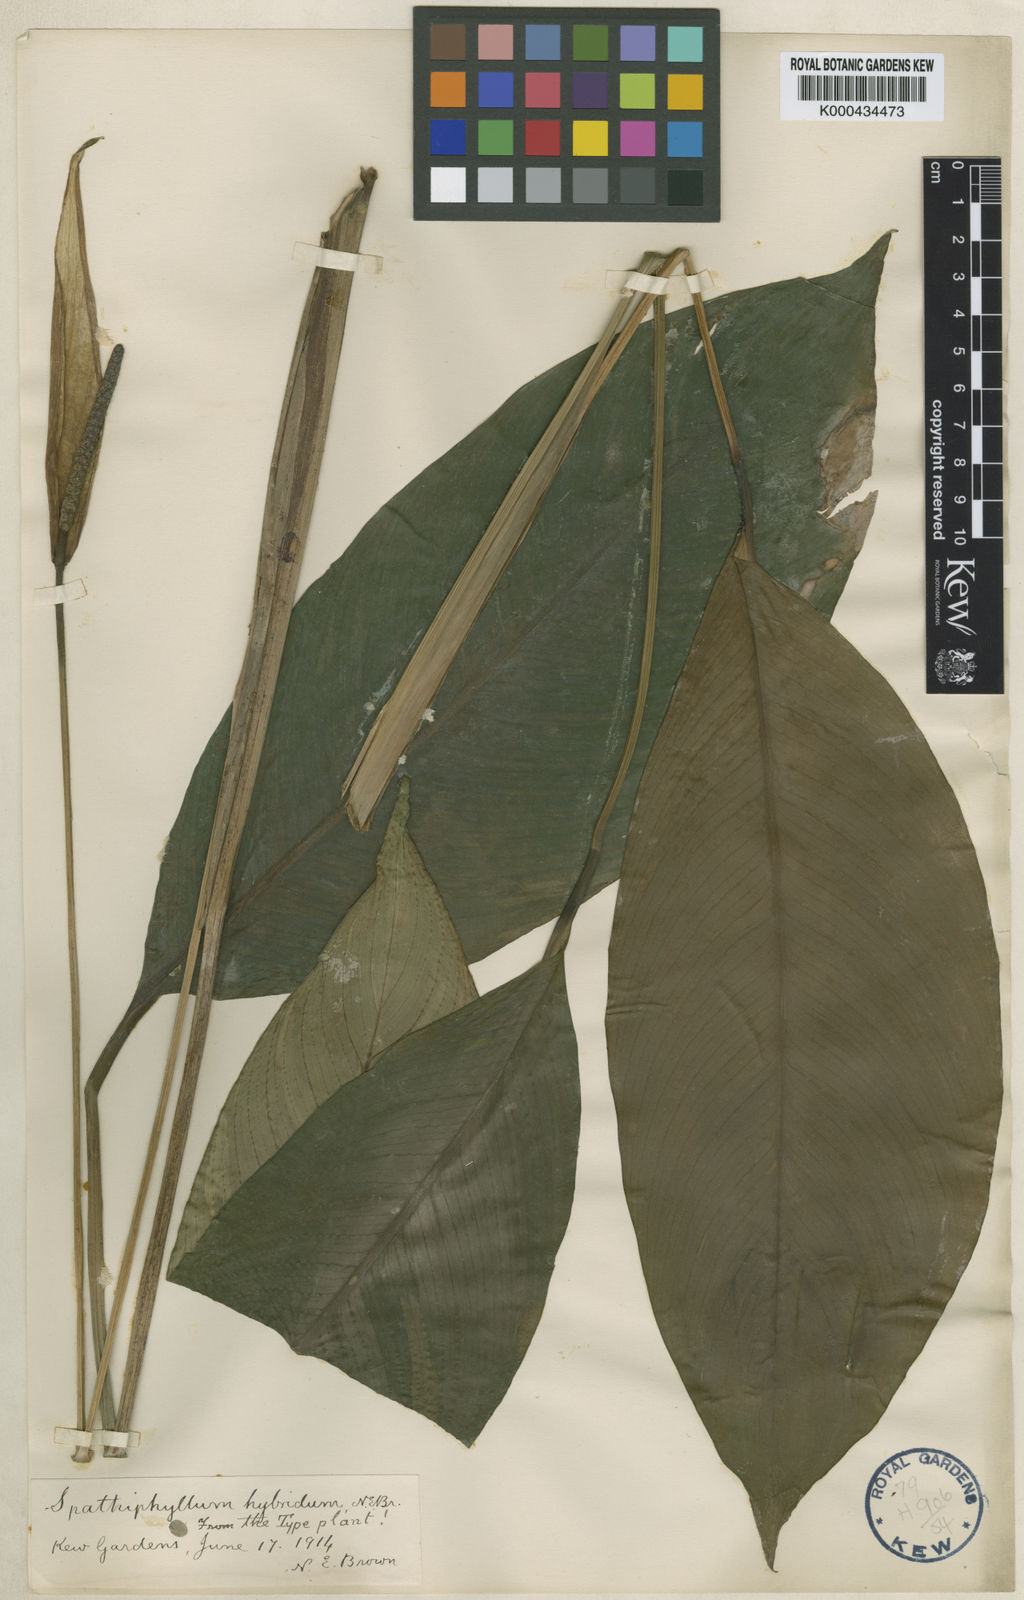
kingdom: Plantae
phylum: Tracheophyta
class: Liliopsida
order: Alismatales
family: Araceae
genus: Spathiphyllum
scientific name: Spathiphyllum hybridum
